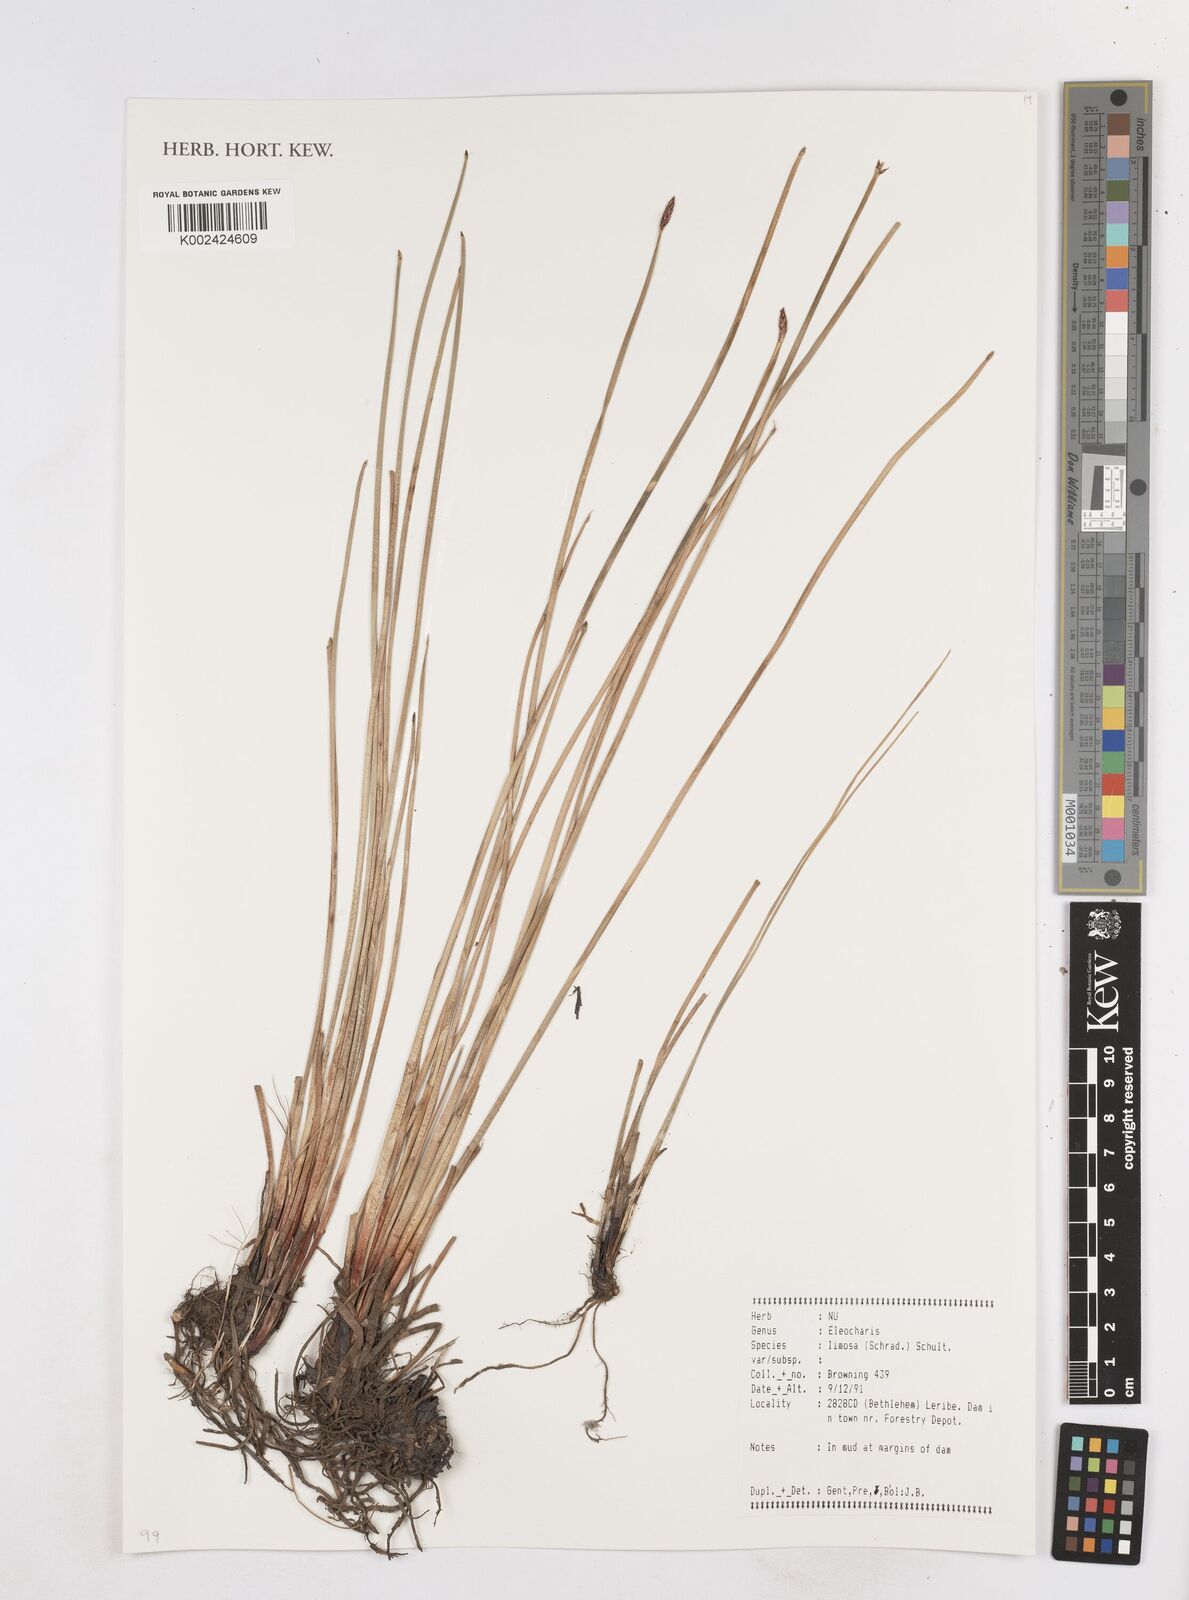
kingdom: Plantae
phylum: Tracheophyta
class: Liliopsida
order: Poales
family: Cyperaceae
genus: Eleocharis
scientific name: Eleocharis limosa
